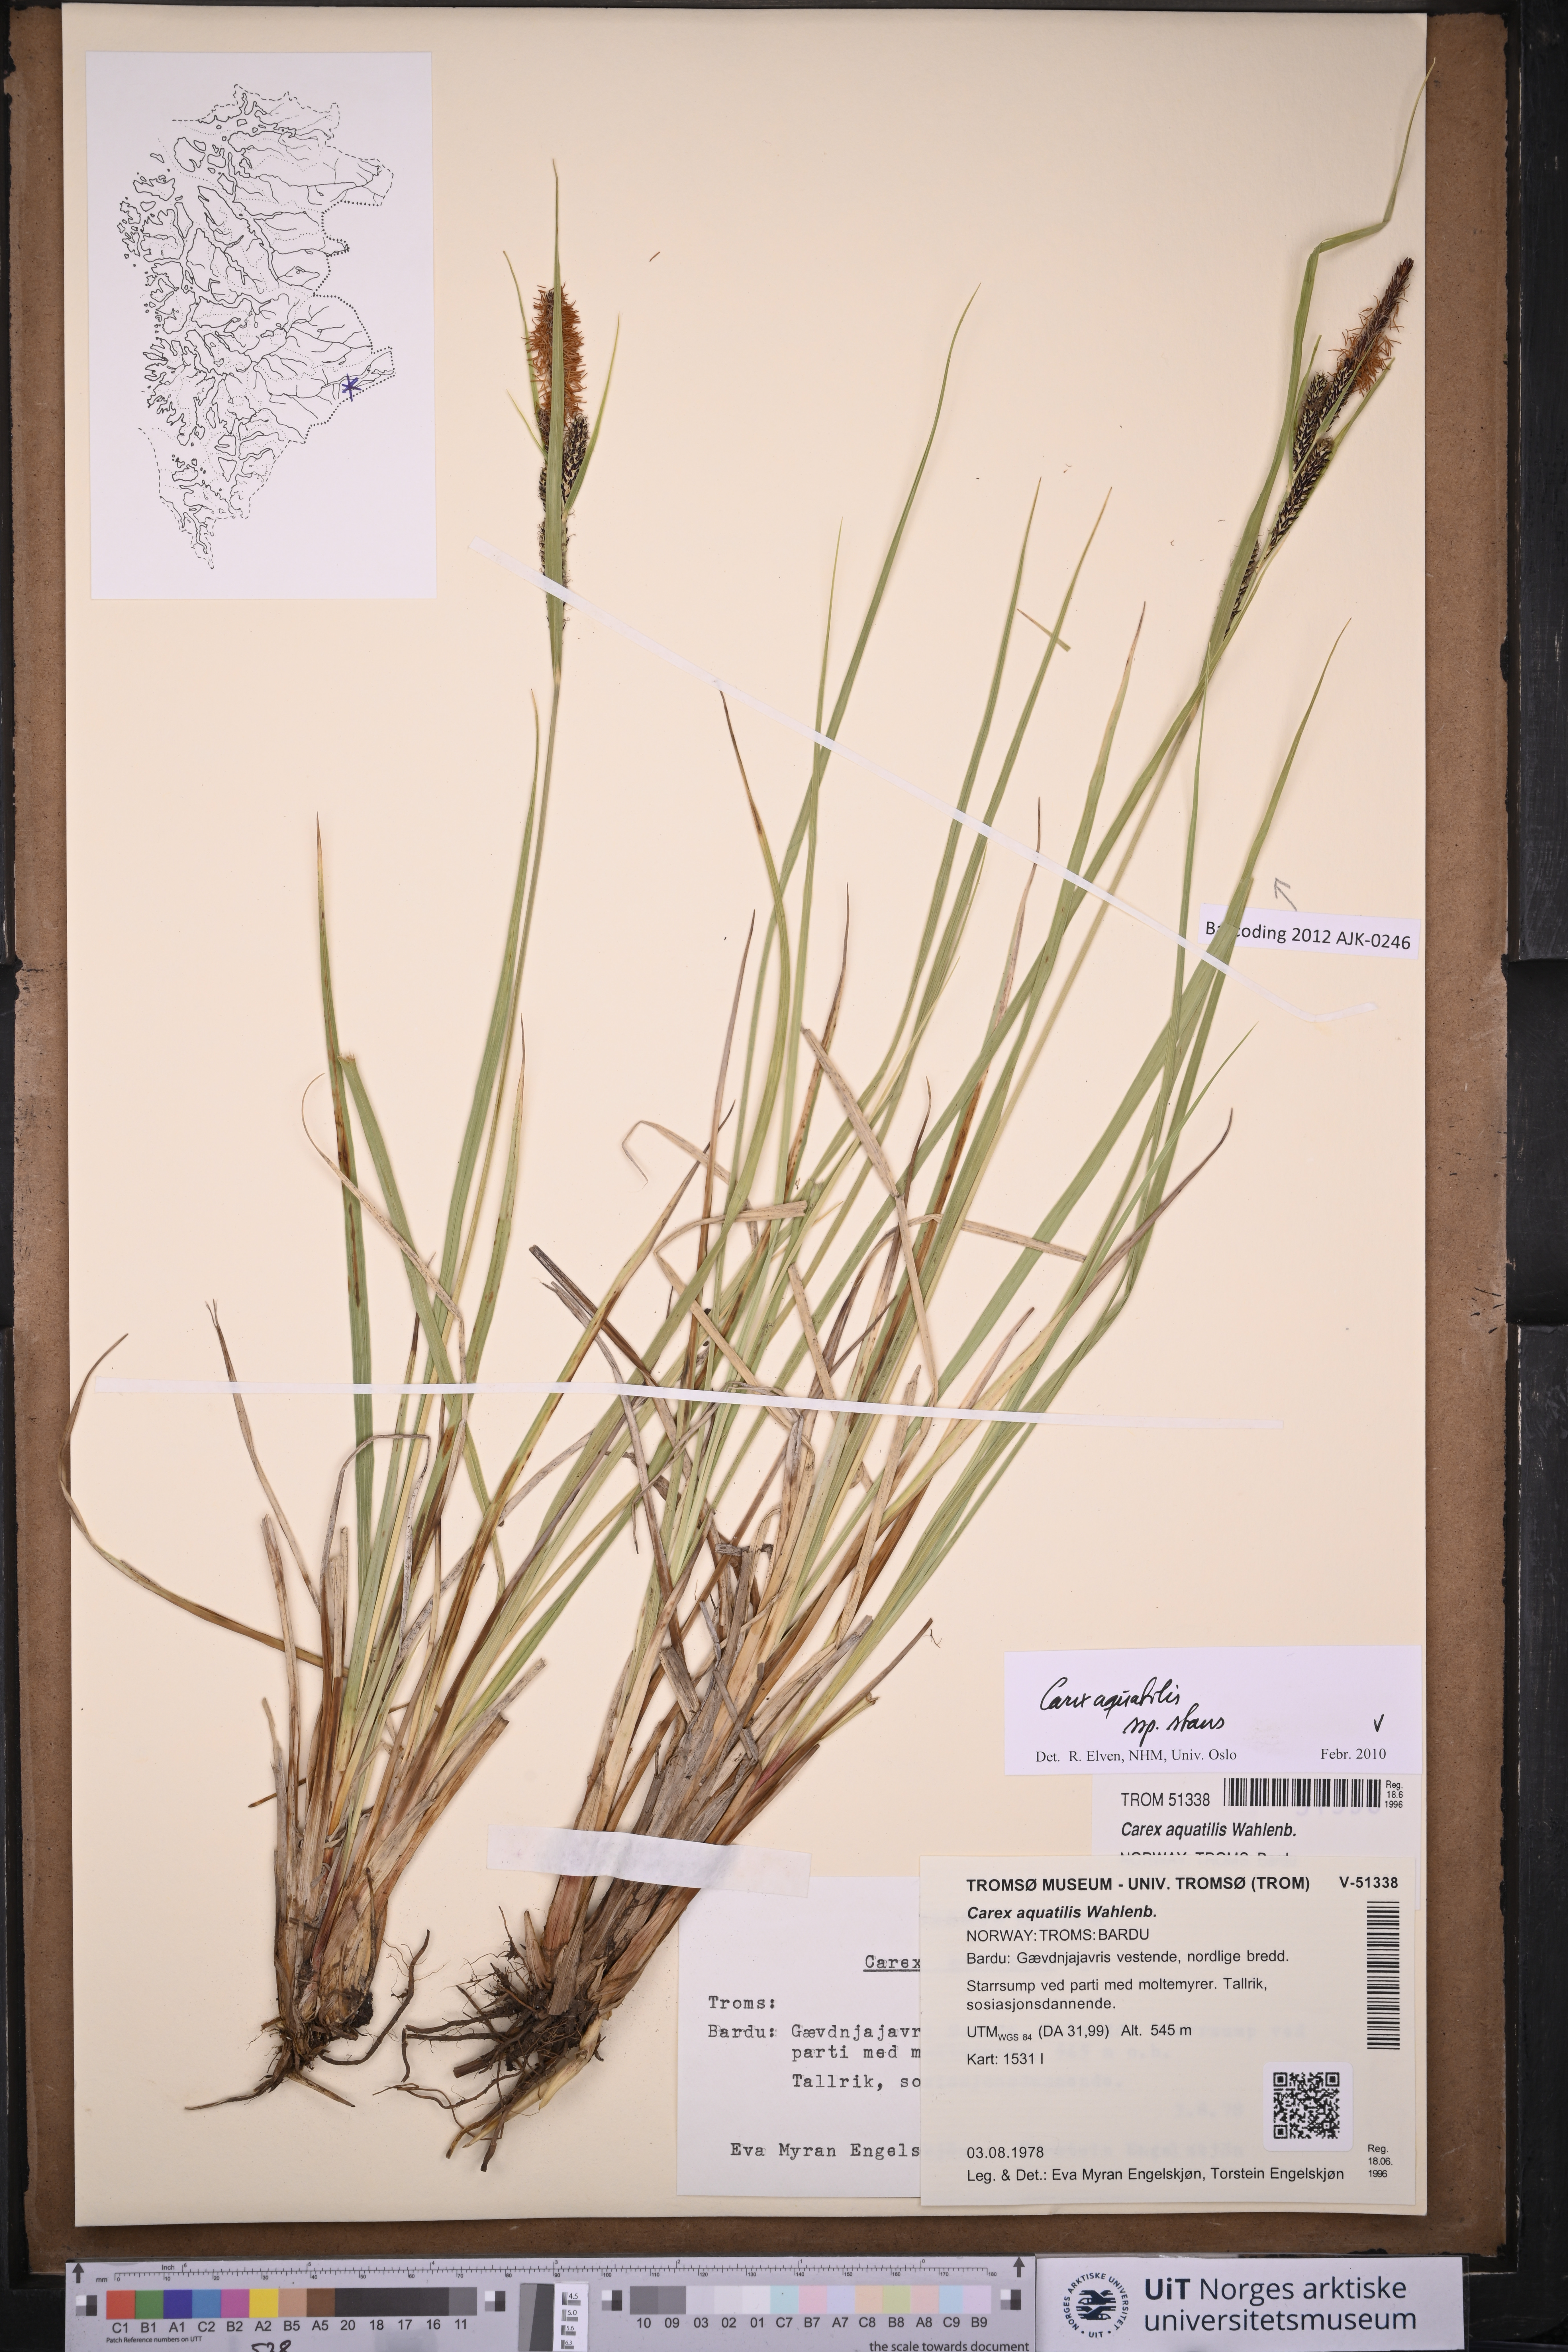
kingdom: Plantae
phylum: Tracheophyta
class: Liliopsida
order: Poales
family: Cyperaceae
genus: Carex
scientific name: Carex aquatilis
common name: Water sedge
